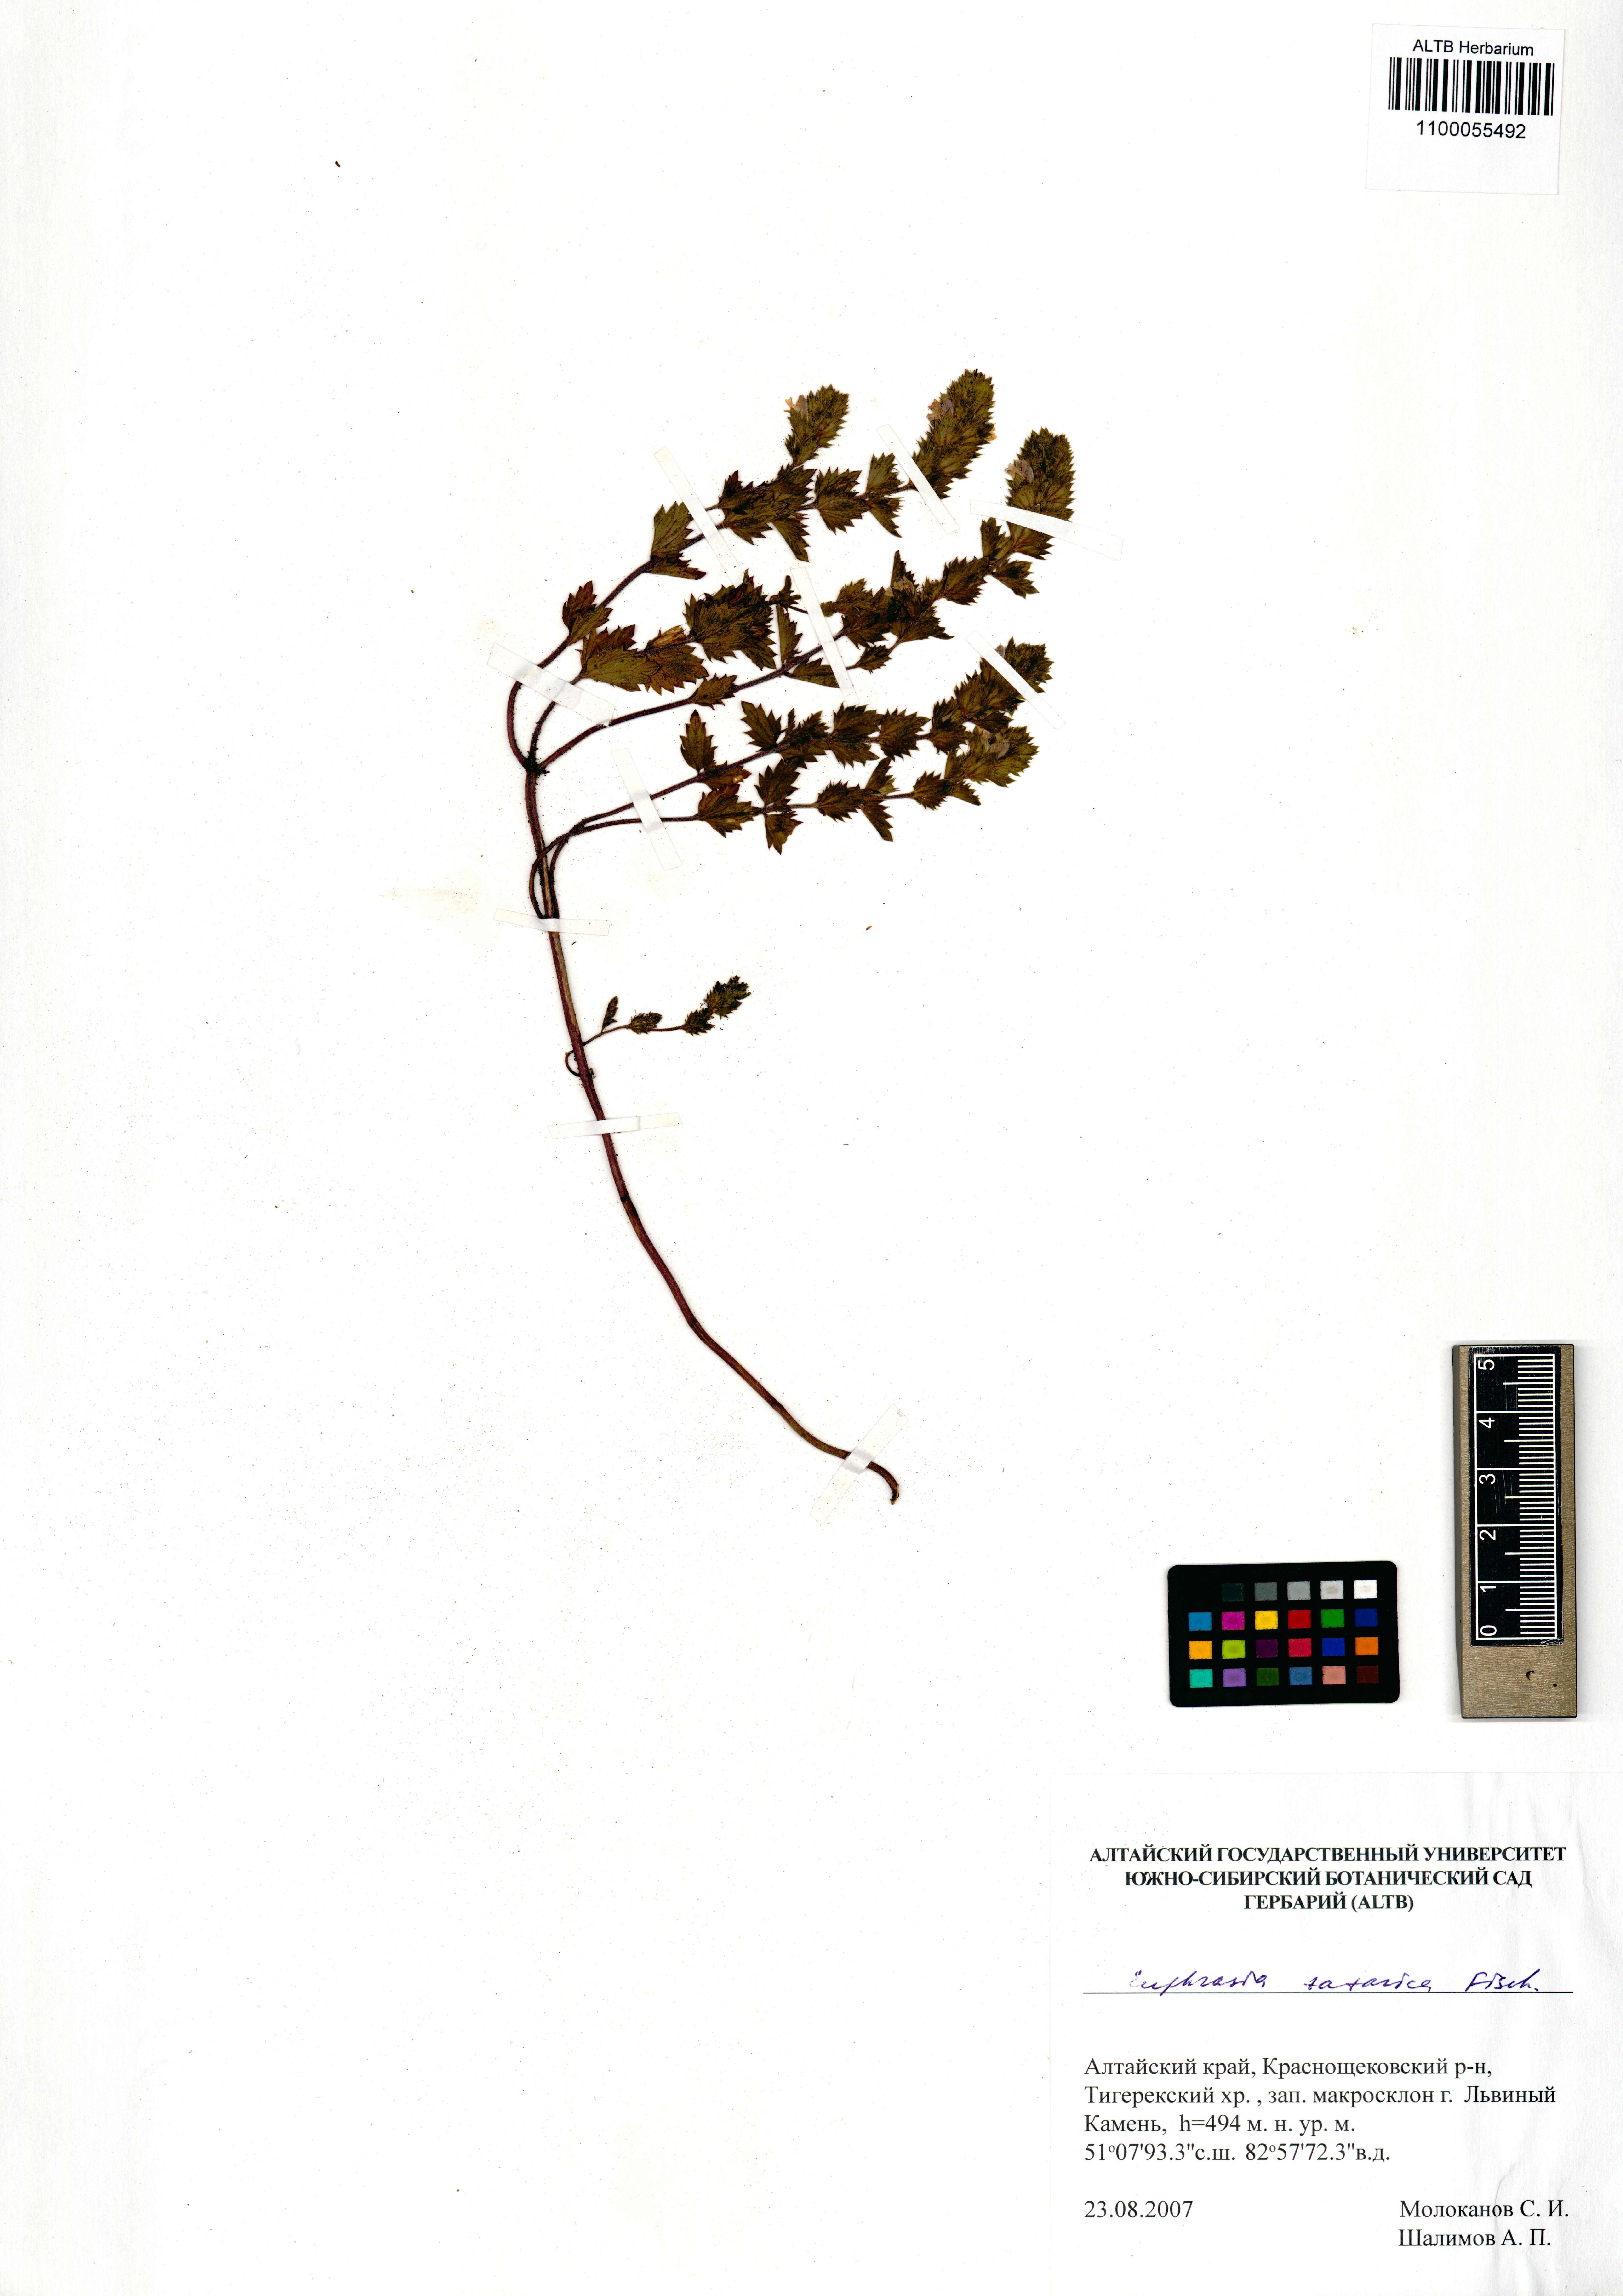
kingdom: Plantae
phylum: Tracheophyta
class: Magnoliopsida
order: Lamiales
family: Orobanchaceae
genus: Euphrasia
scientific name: Euphrasia pectinata
